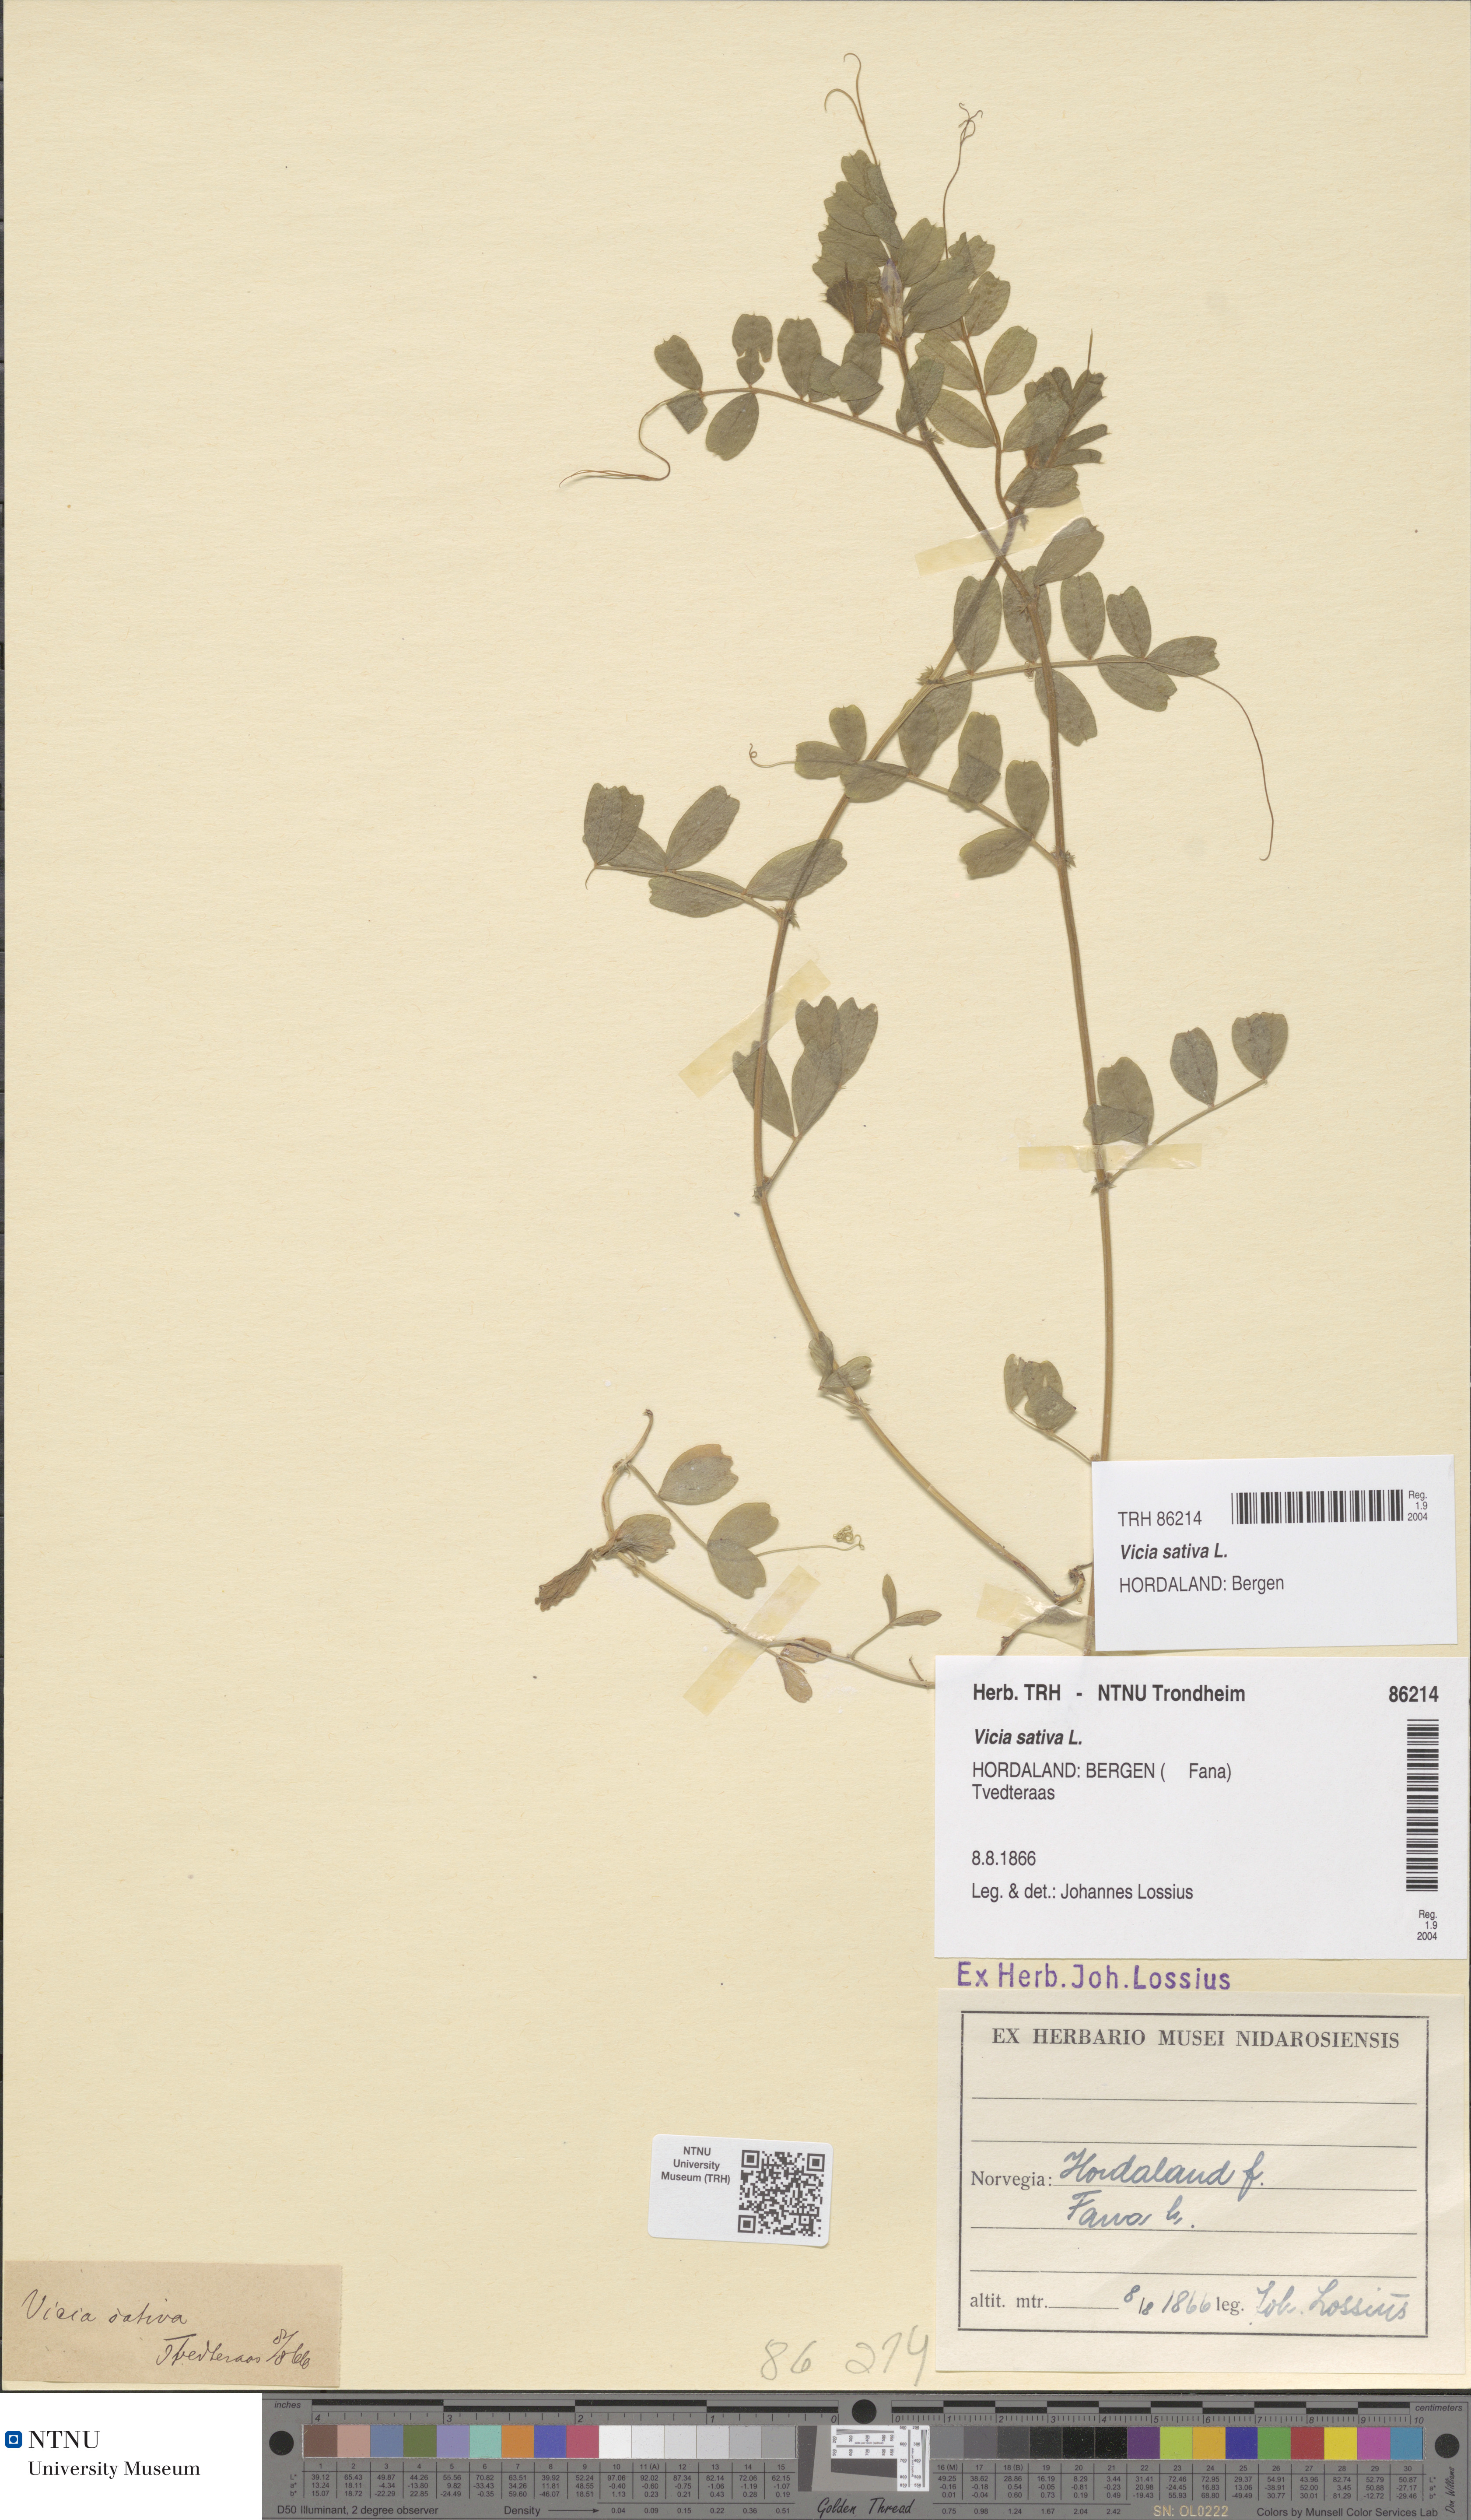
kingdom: Plantae
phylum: Tracheophyta
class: Magnoliopsida
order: Fabales
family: Fabaceae
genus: Vicia
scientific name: Vicia sativa
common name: Garden vetch
